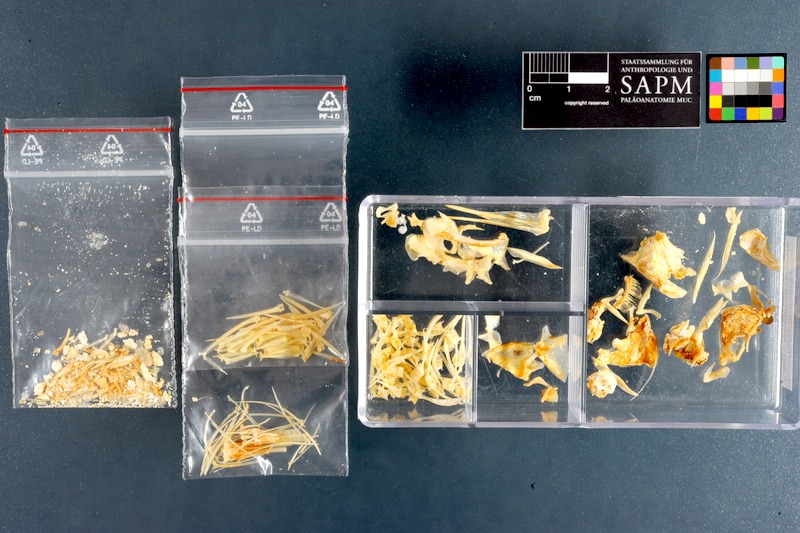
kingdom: Animalia
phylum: Chordata
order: Perciformes
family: Cheilodactylidae
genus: Cheilodactylus
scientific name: Cheilodactylus pixi
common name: Barred fingerfin
